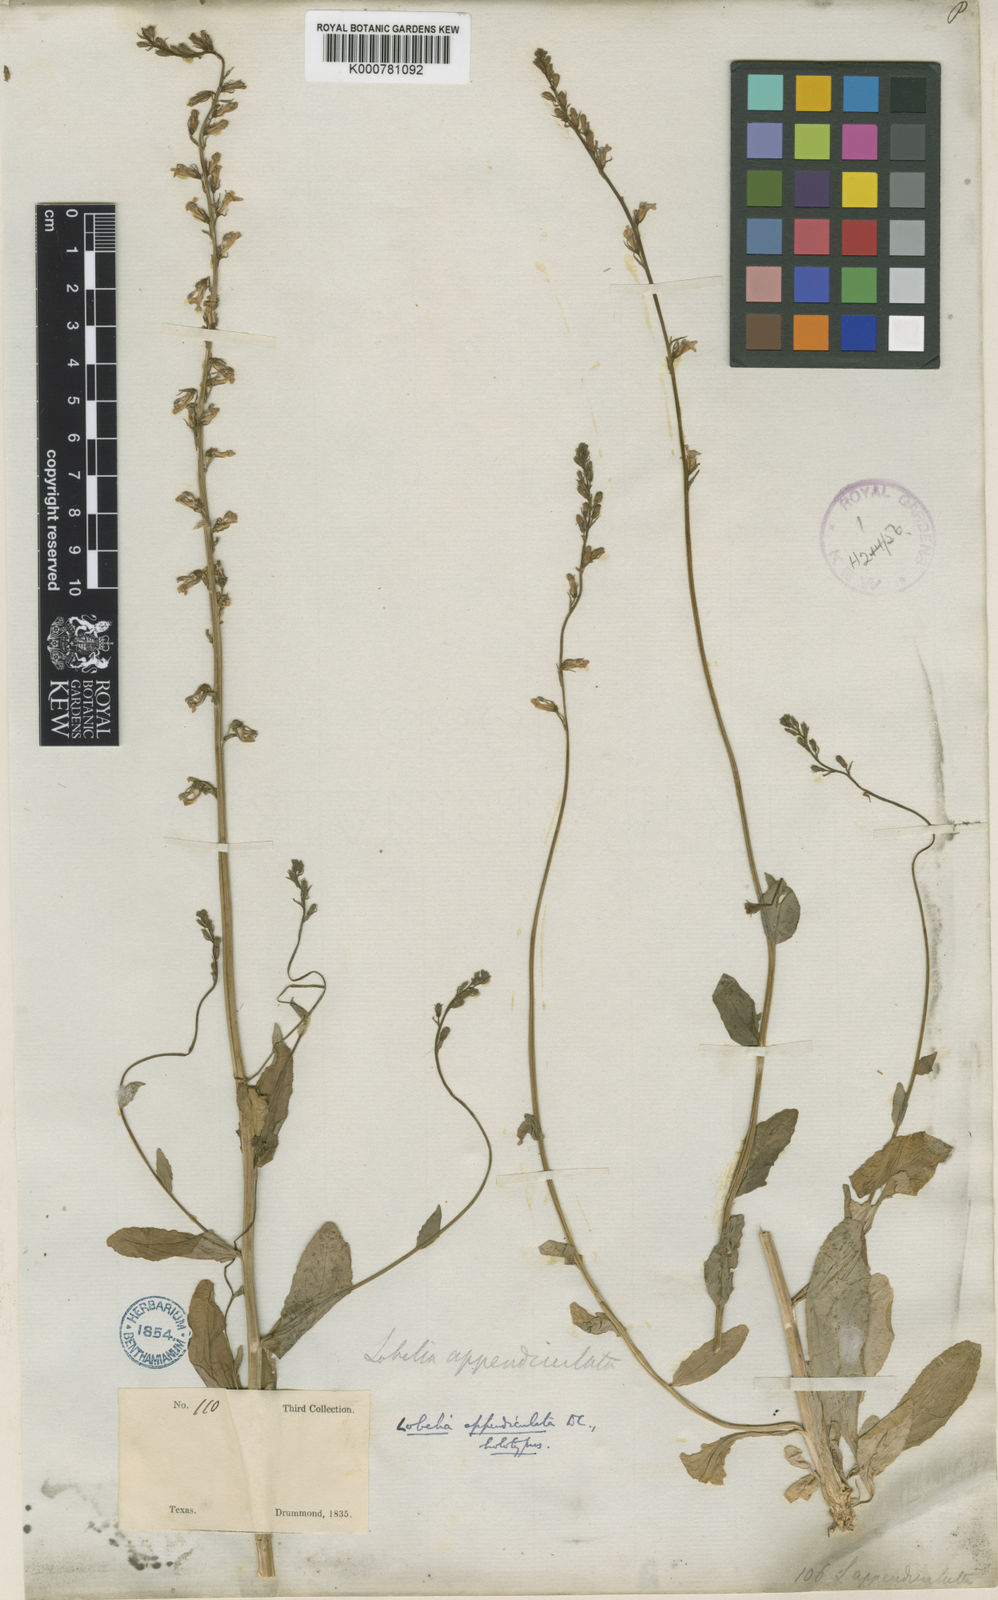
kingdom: Plantae
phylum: Tracheophyta
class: Magnoliopsida
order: Asterales
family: Campanulaceae
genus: Lobelia
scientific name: Lobelia appendiculata
